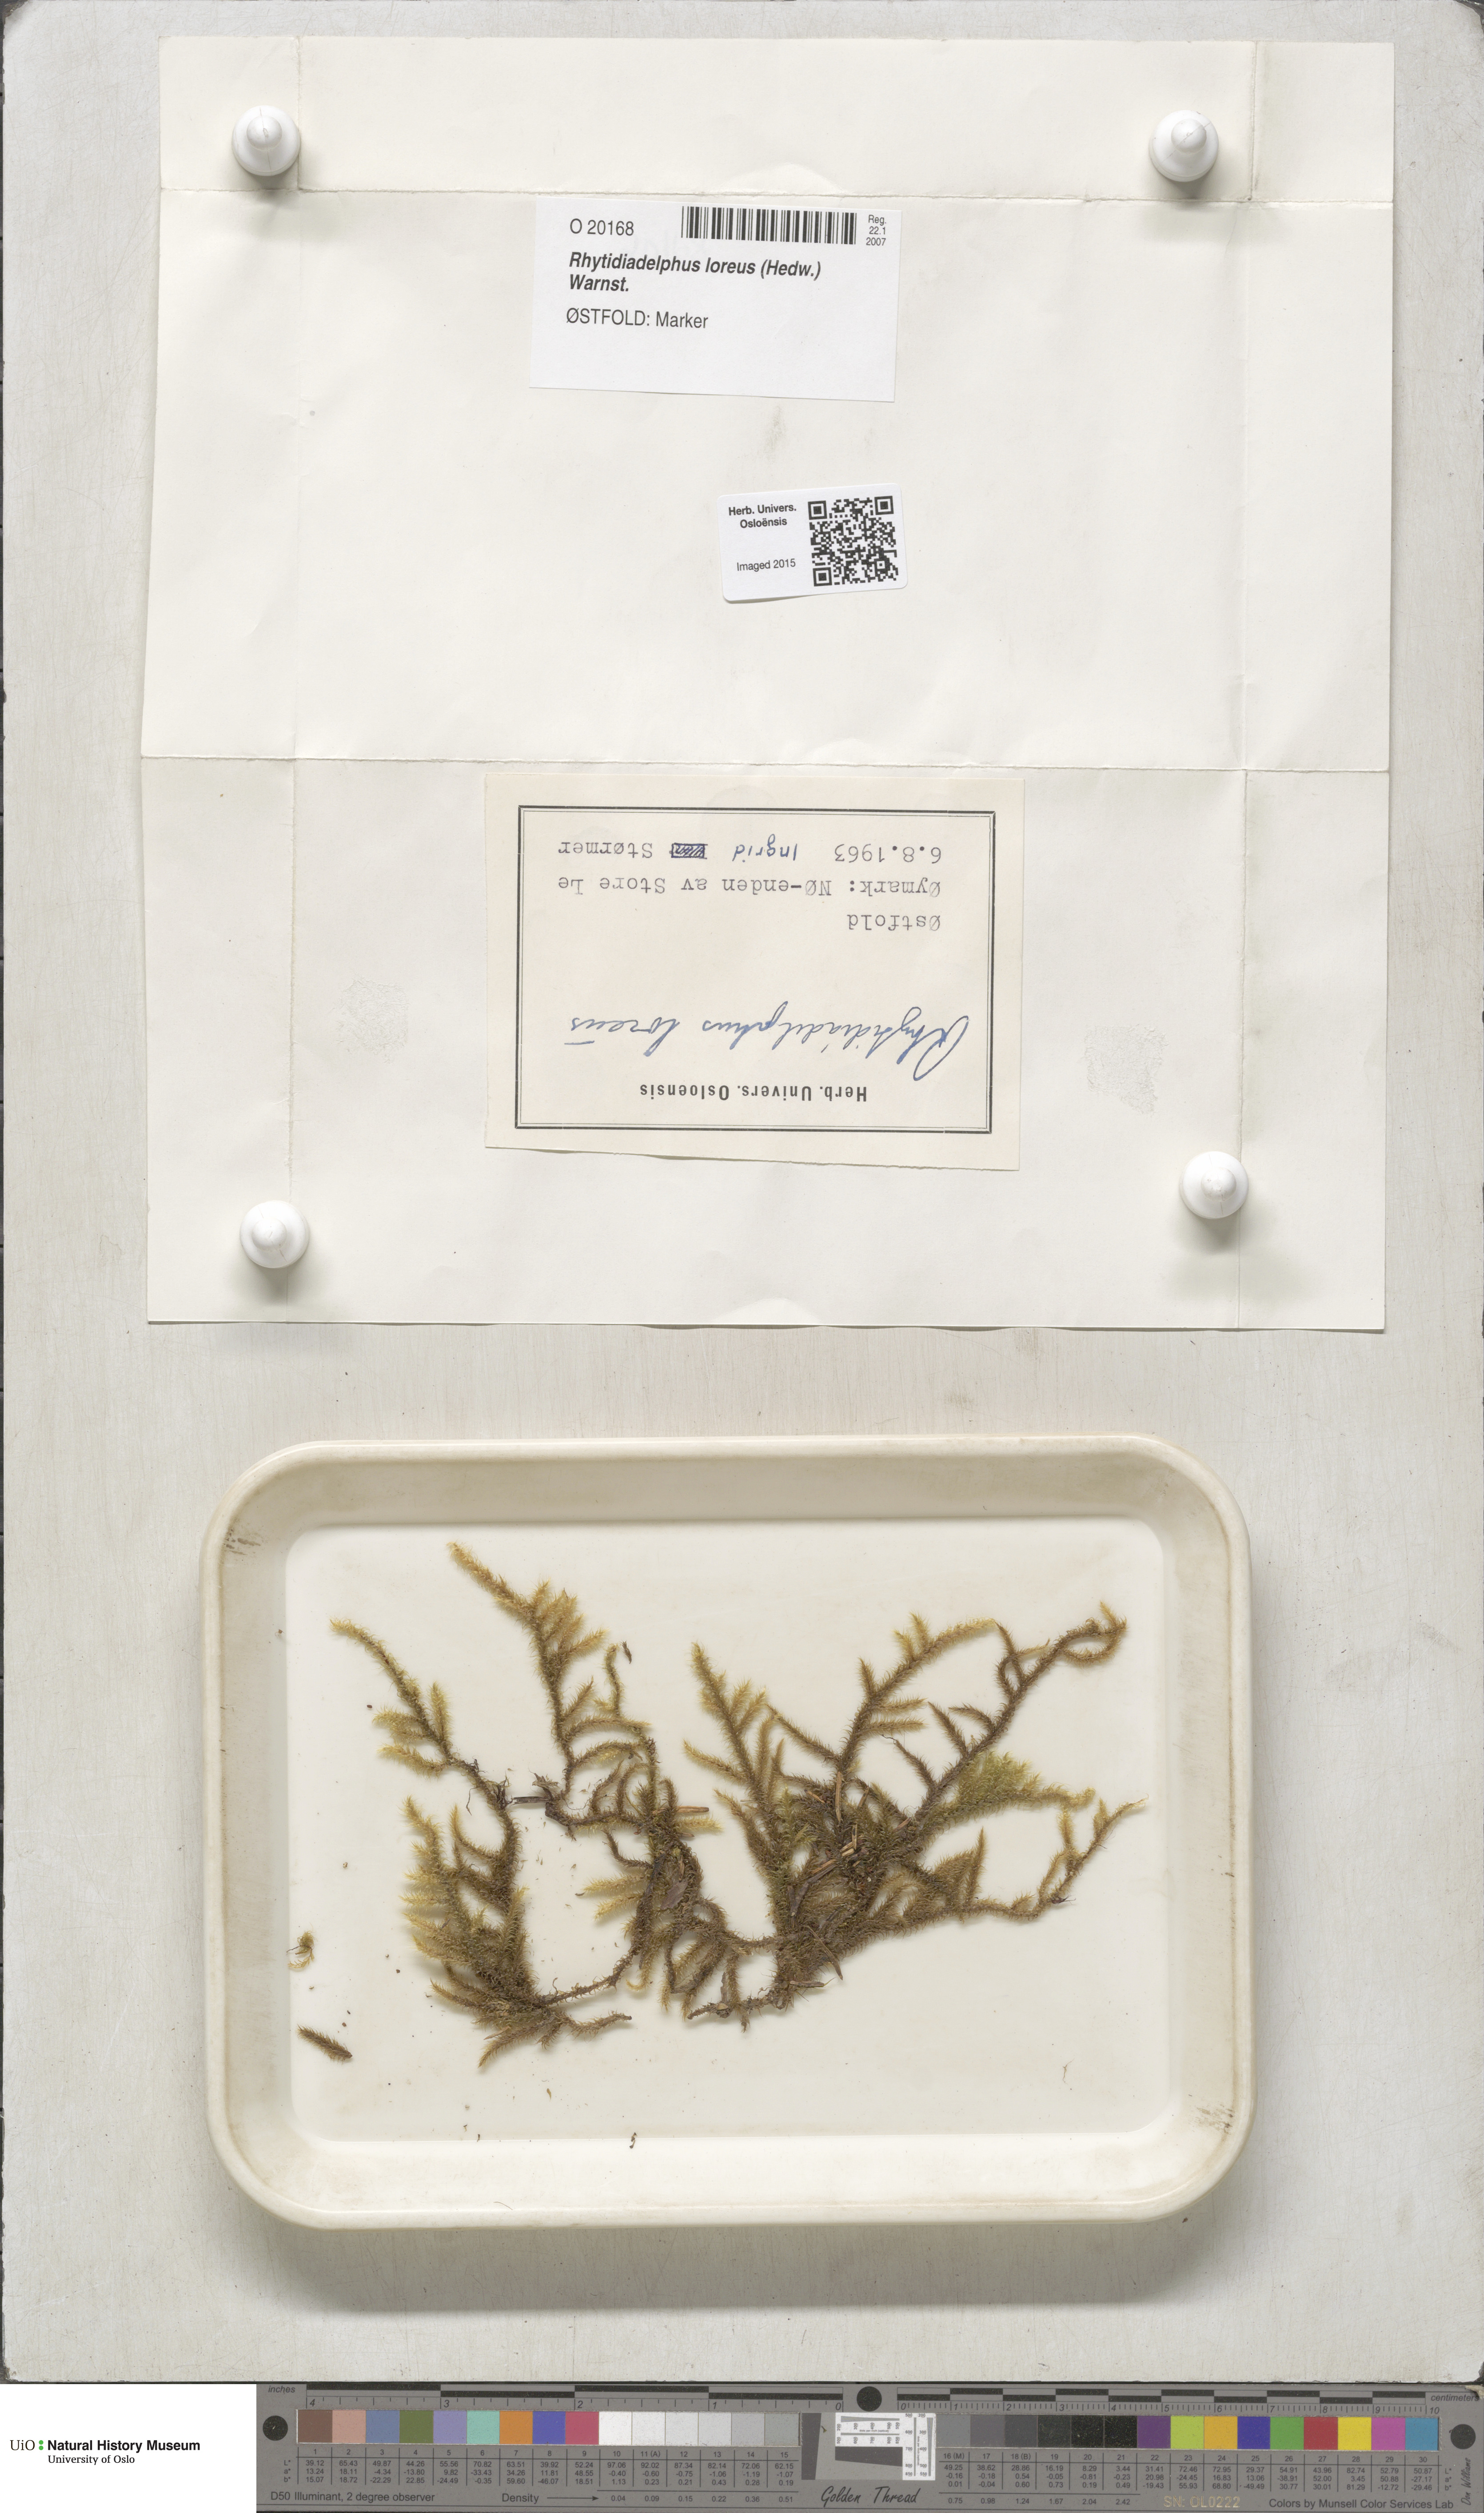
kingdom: Plantae
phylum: Bryophyta
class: Bryopsida
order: Hypnales
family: Hylocomiaceae
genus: Rhytidiadelphus
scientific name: Rhytidiadelphus loreus
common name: Lanky moss
